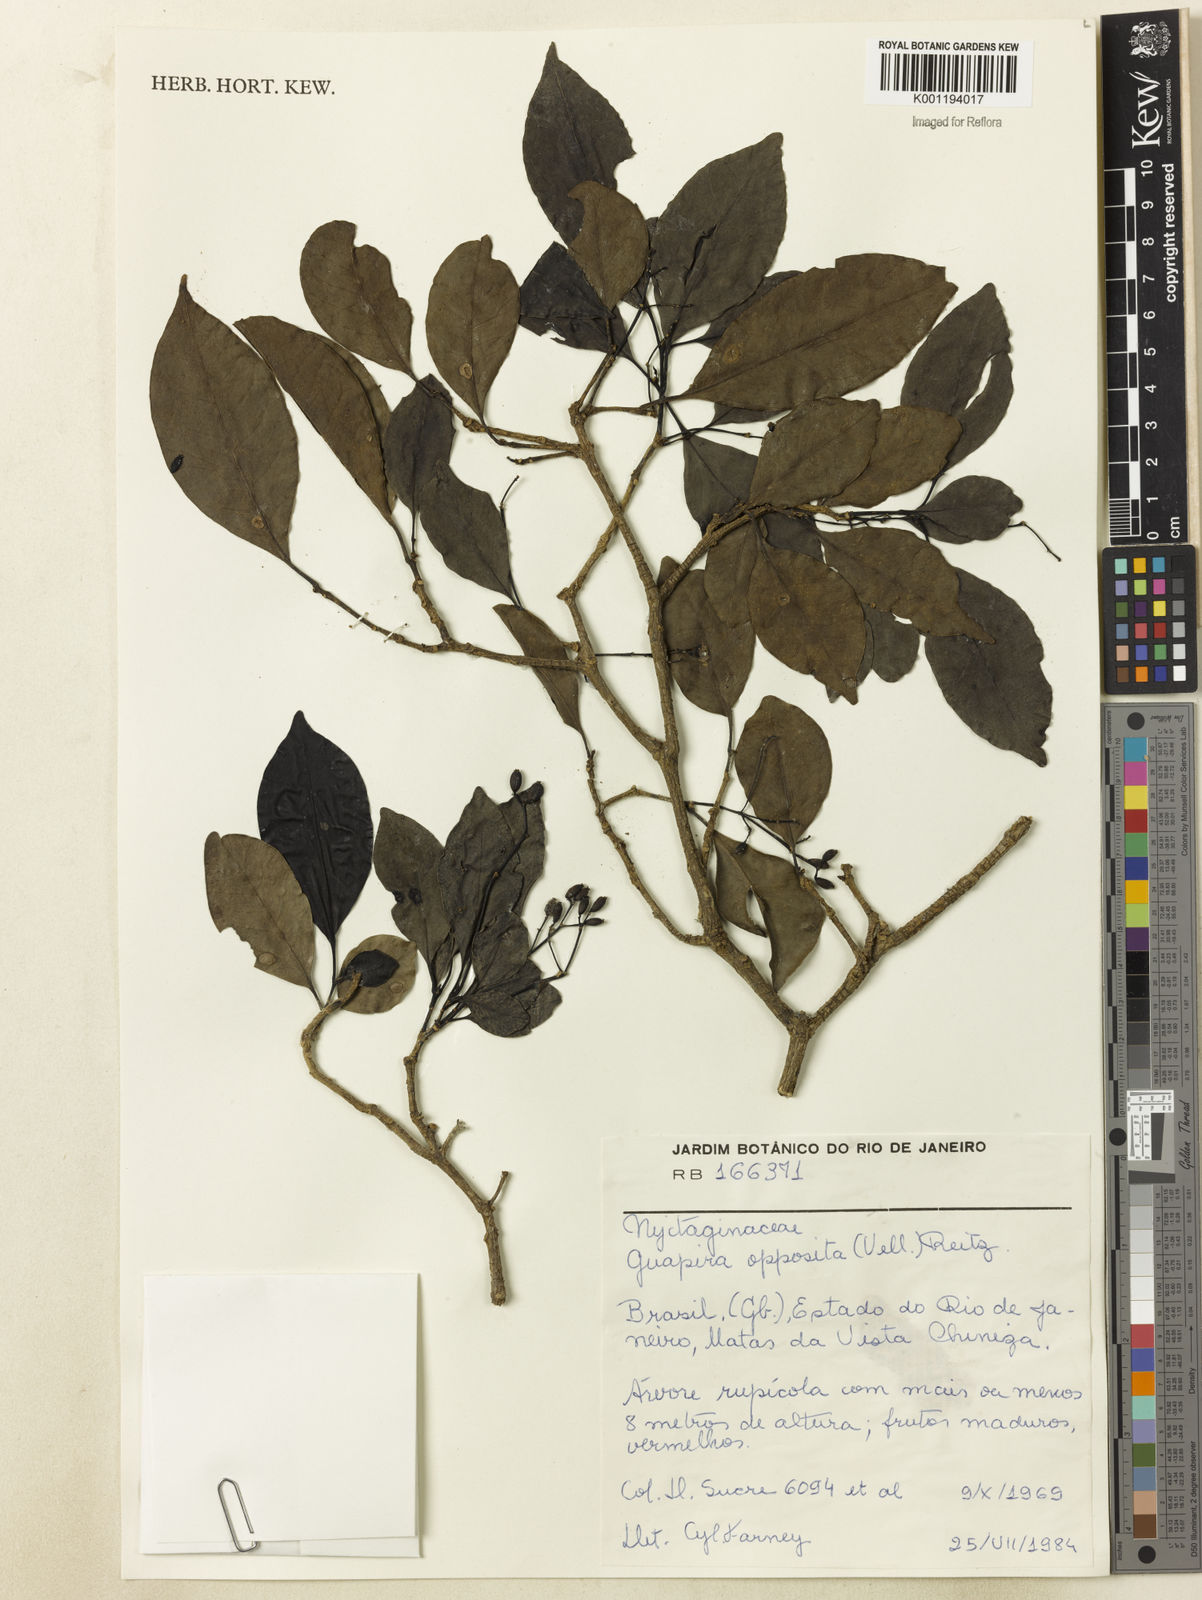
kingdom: Plantae
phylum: Tracheophyta
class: Magnoliopsida
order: Caryophyllales
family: Nyctaginaceae
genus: Guapira
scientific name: Guapira opposita
